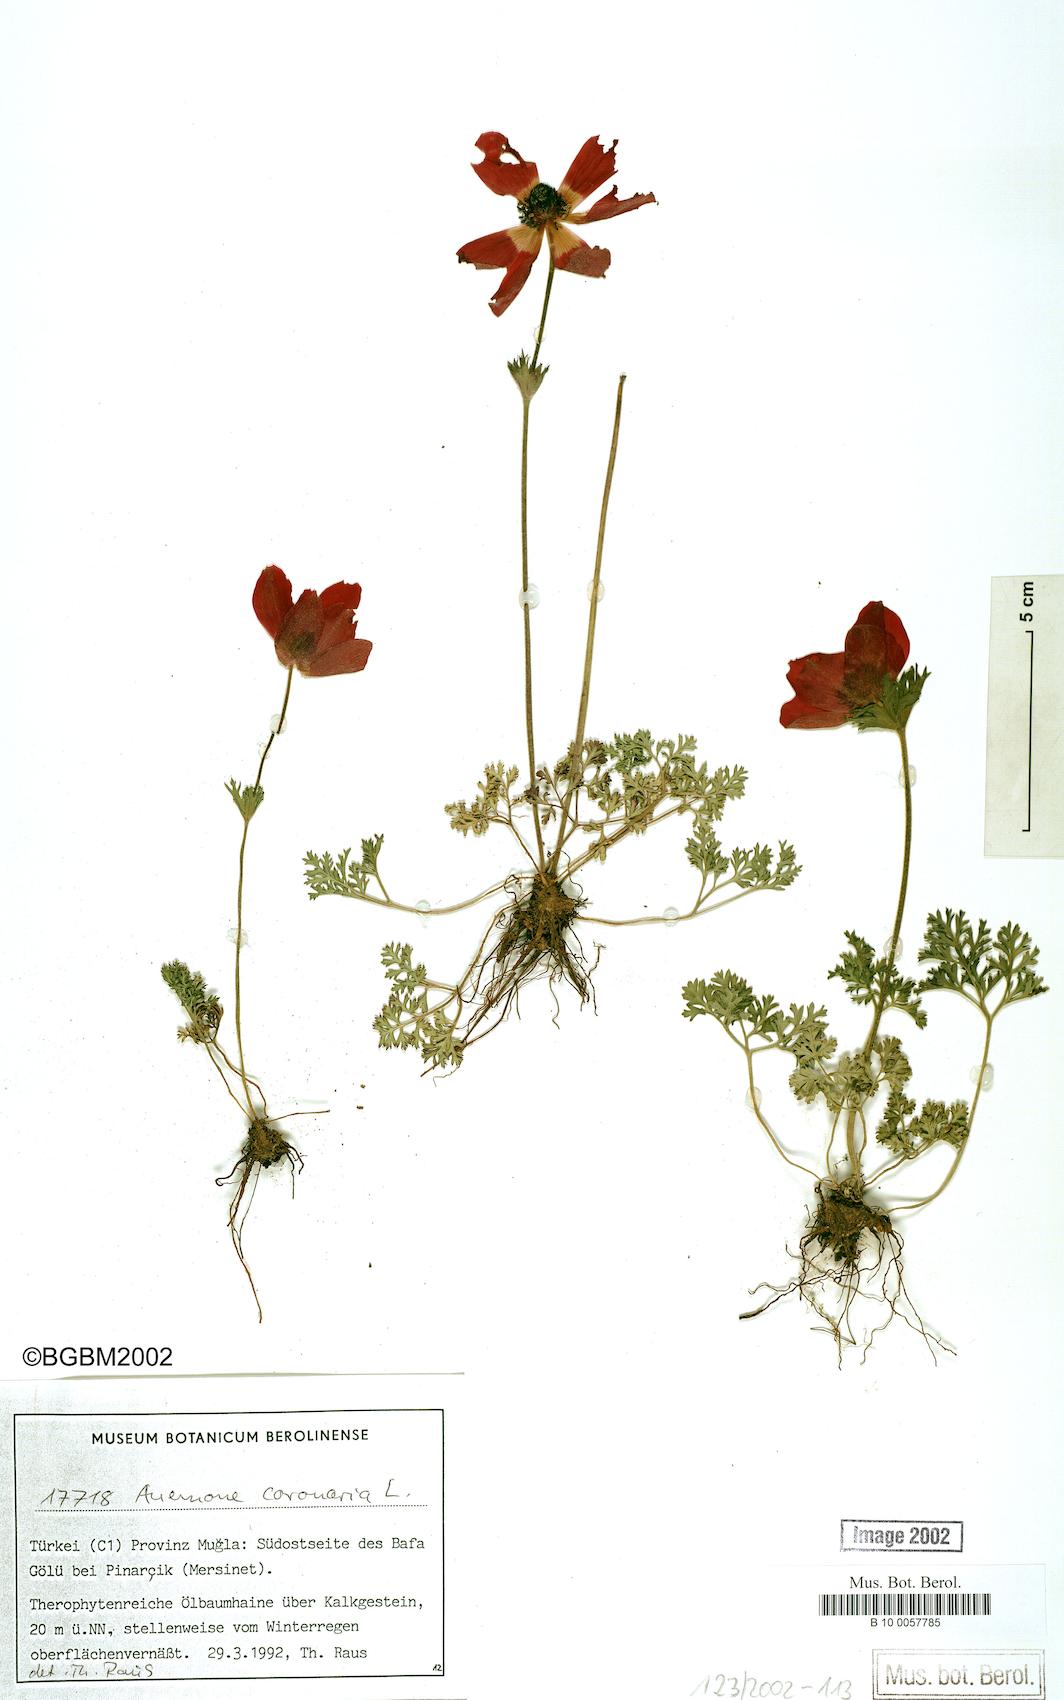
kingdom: Plantae
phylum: Tracheophyta
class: Magnoliopsida
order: Ranunculales
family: Ranunculaceae
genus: Anemone
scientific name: Anemone coronaria
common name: Poppy anemone
